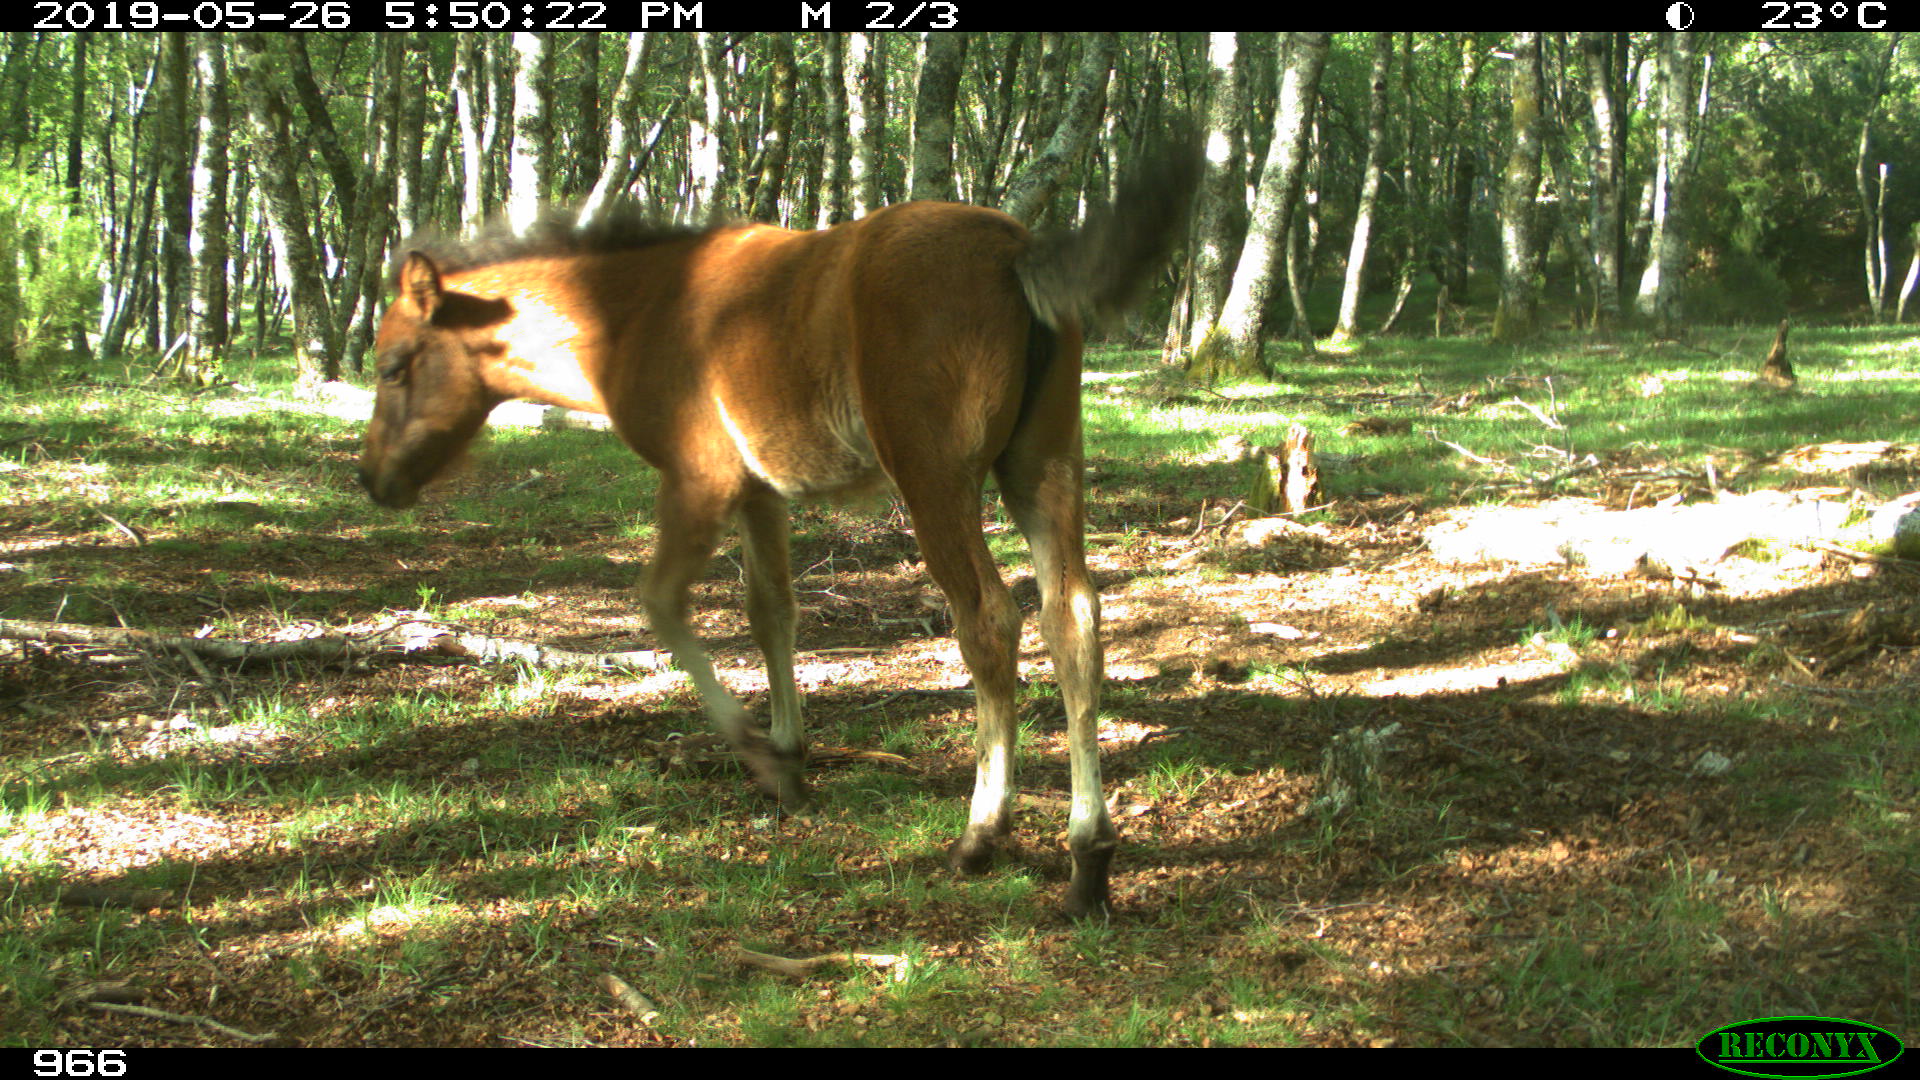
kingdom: Animalia
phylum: Chordata
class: Mammalia
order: Perissodactyla
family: Equidae
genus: Equus
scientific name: Equus caballus
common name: Horse
